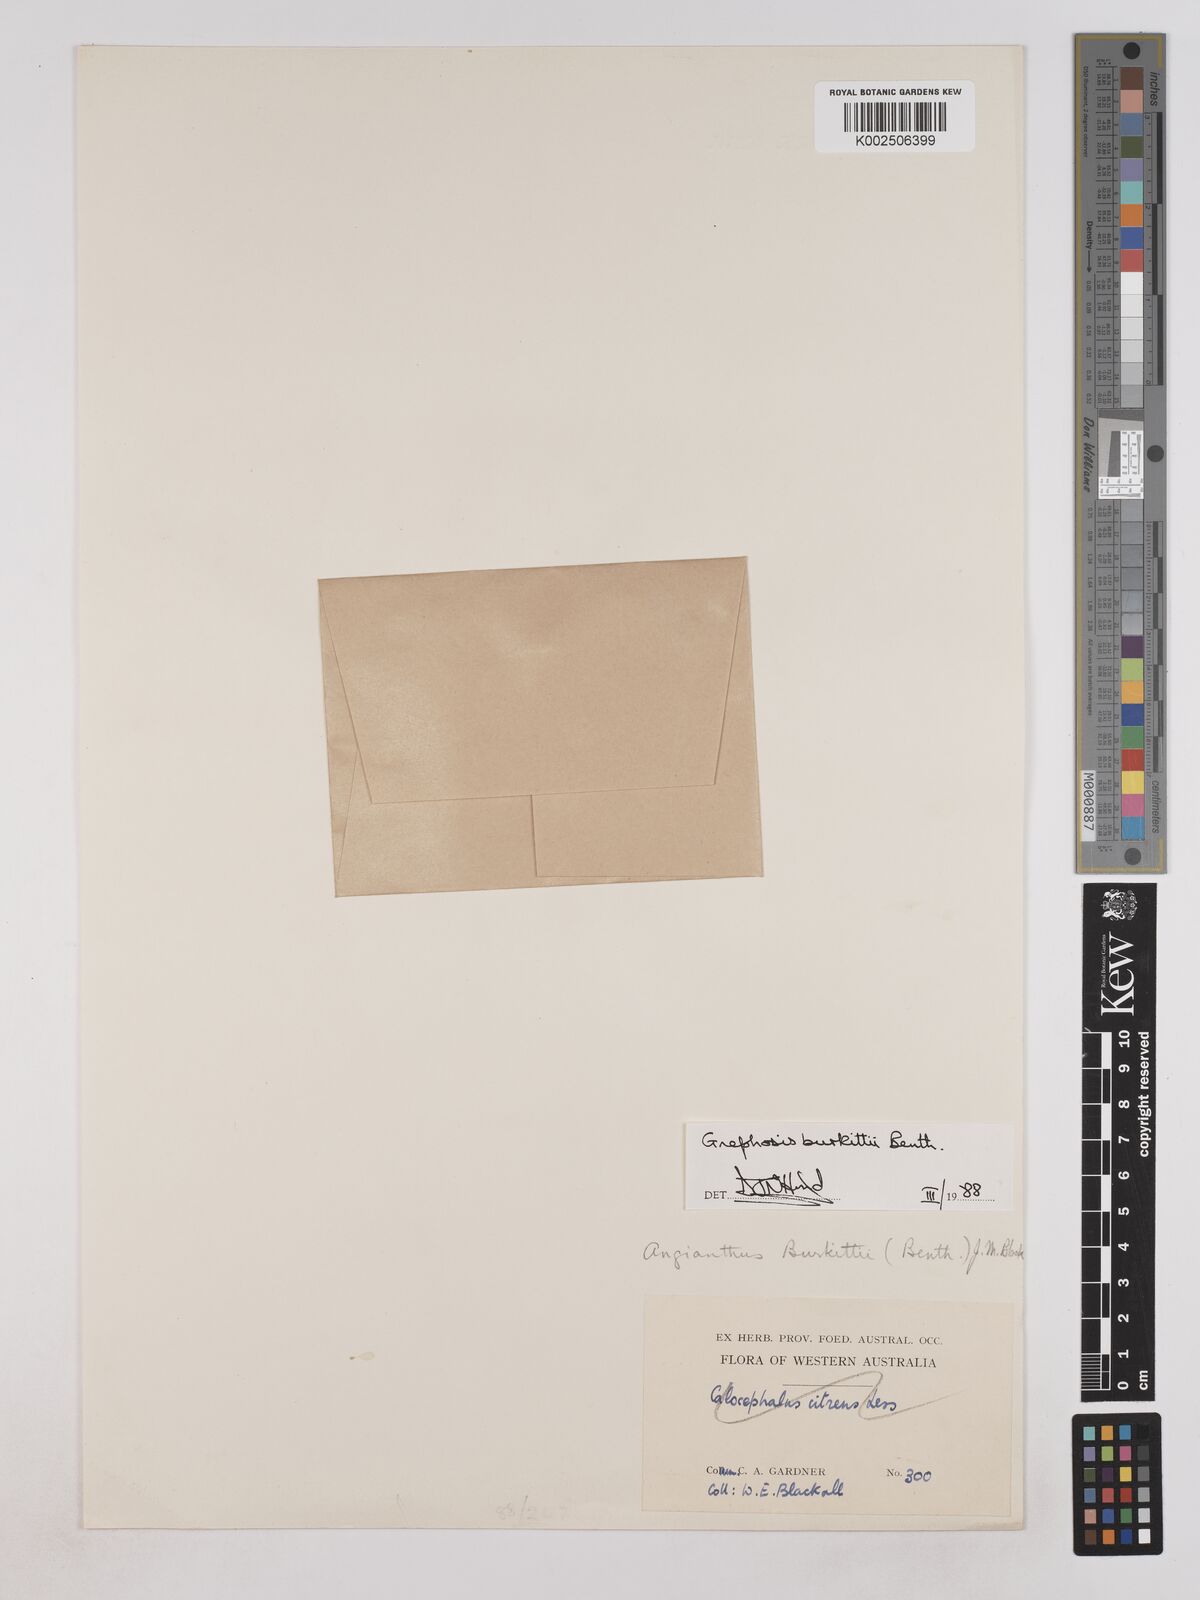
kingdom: Plantae
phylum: Tracheophyta
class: Magnoliopsida
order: Asterales
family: Asteraceae
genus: Lemooria
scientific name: Lemooria burkittii
